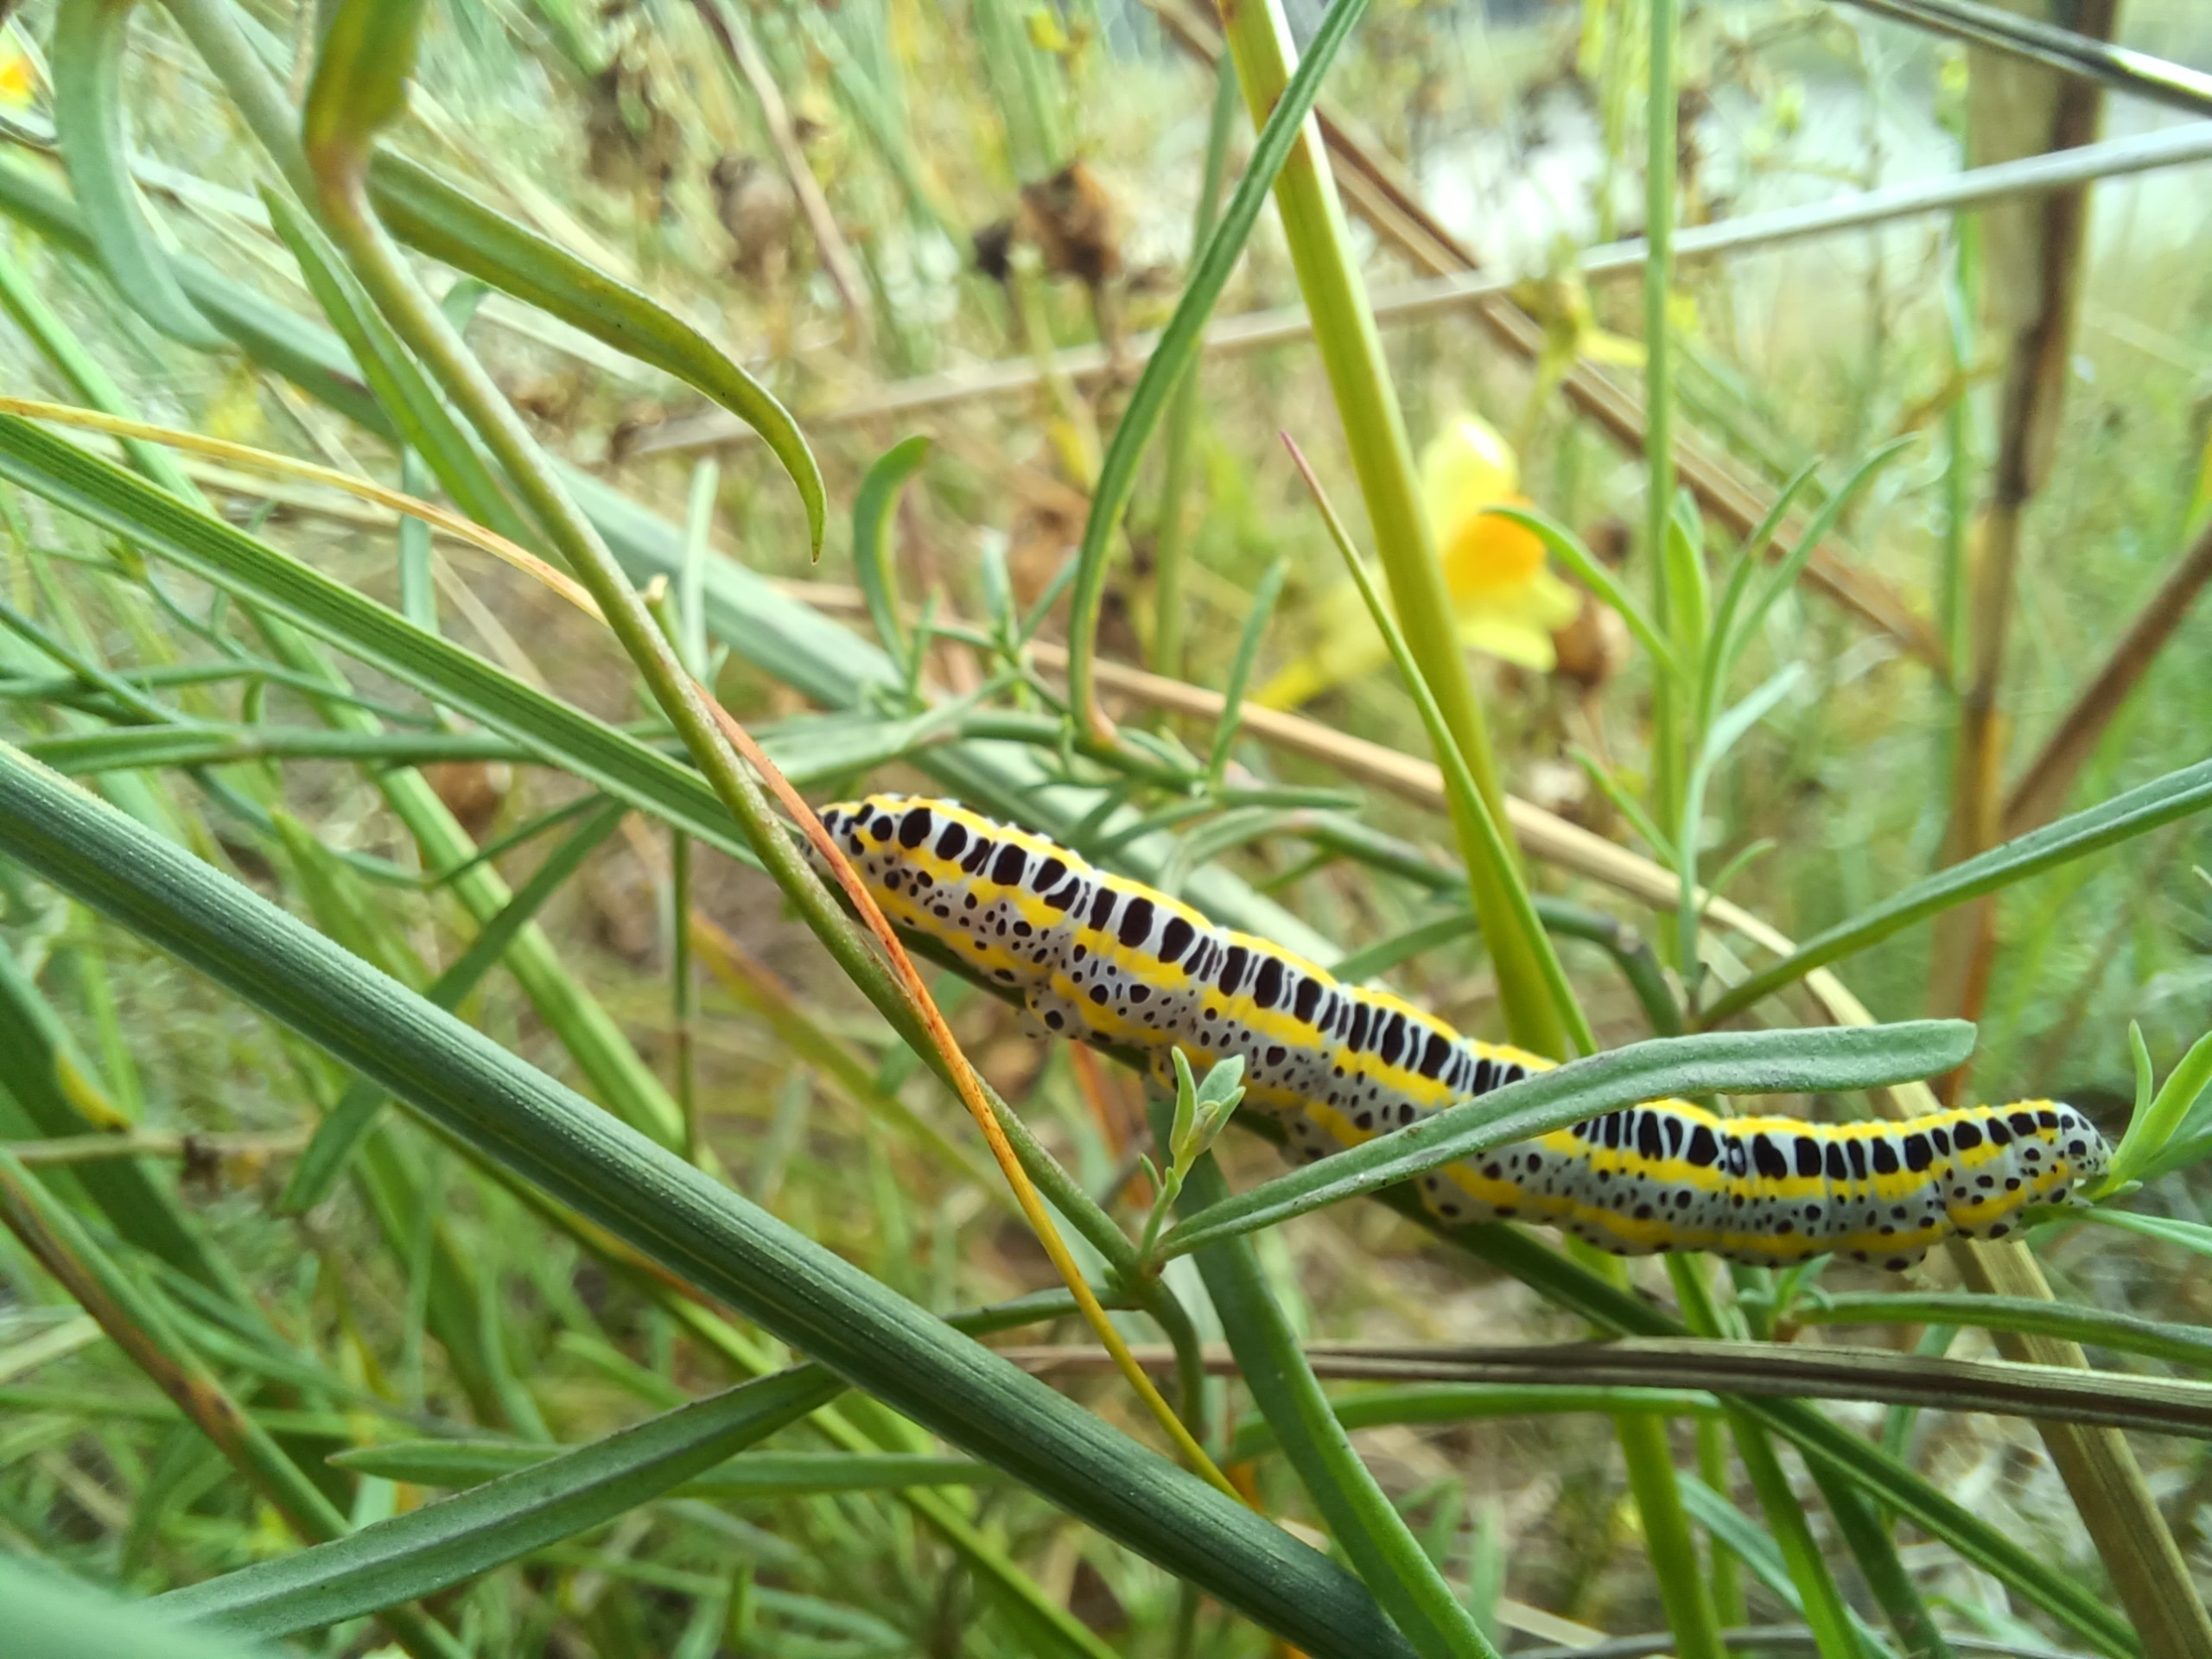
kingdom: Animalia
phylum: Arthropoda
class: Insecta
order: Lepidoptera
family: Noctuidae
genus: Calophasia
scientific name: Calophasia lunula
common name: Kappeugle
